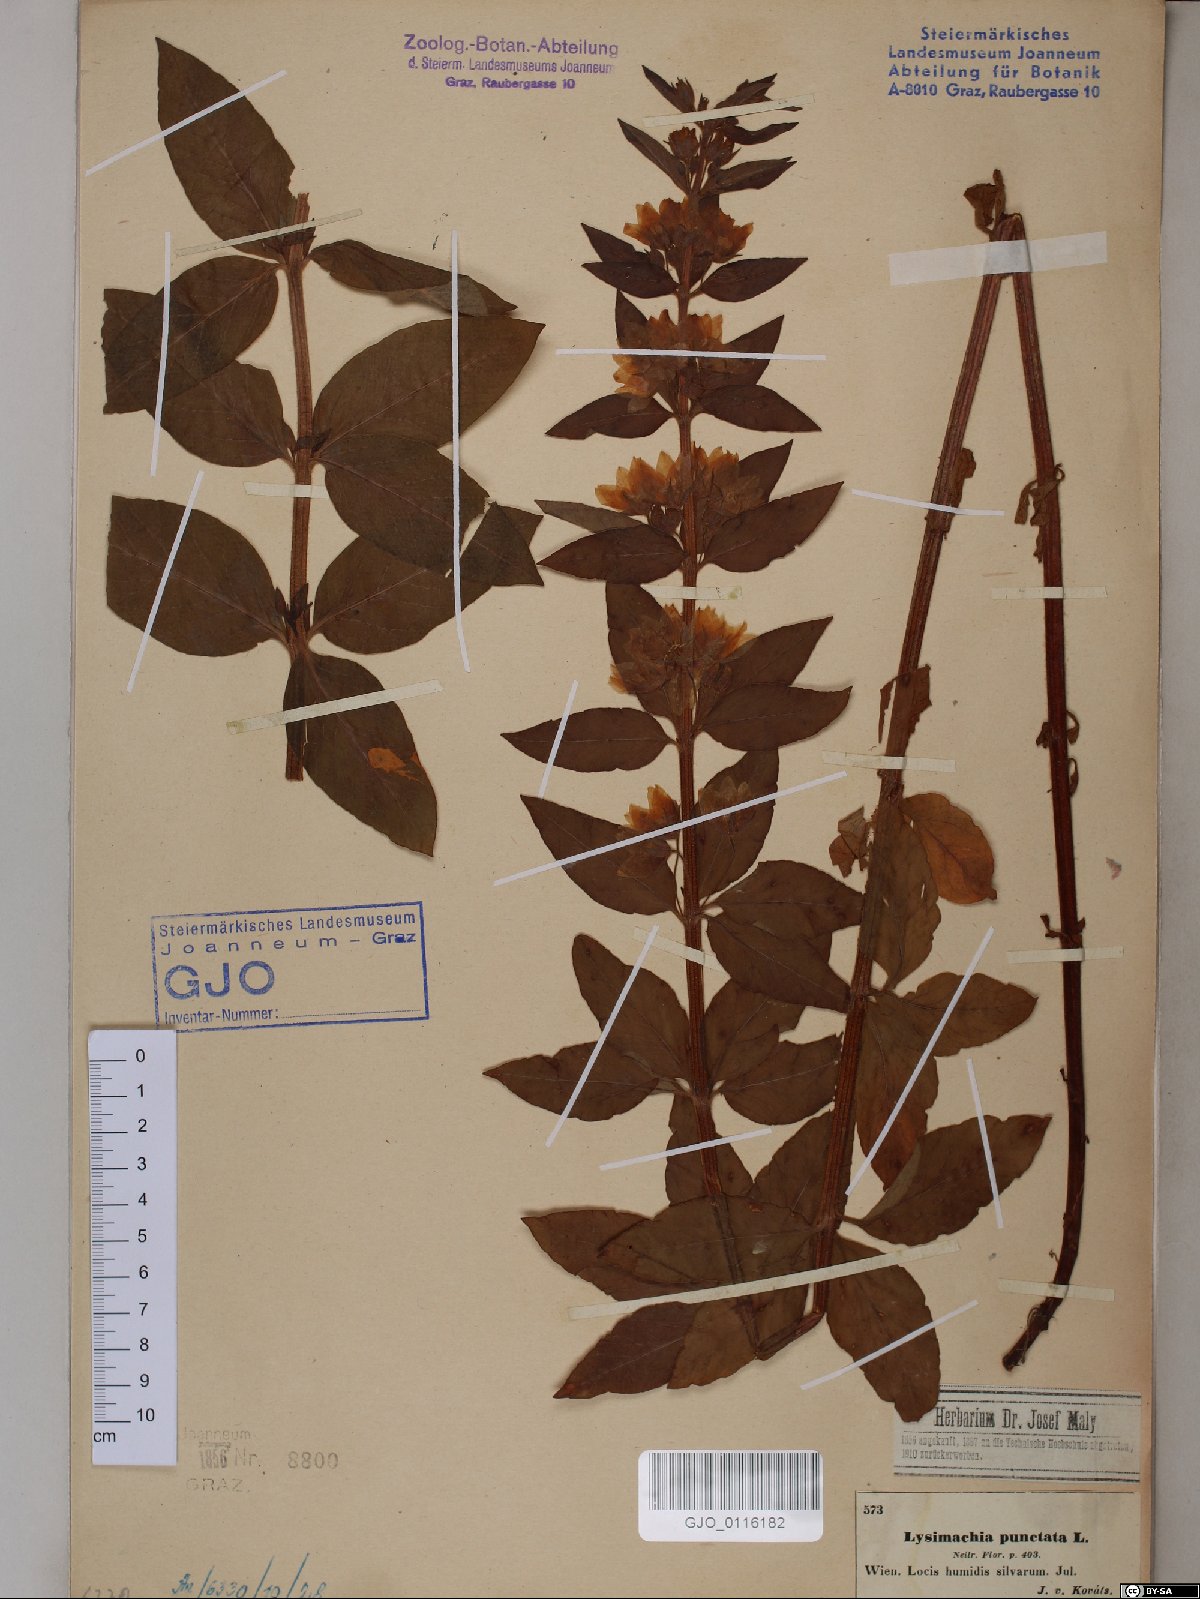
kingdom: Plantae
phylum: Tracheophyta
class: Magnoliopsida
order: Ericales
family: Primulaceae
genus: Lysimachia
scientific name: Lysimachia punctata
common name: Dotted loosestrife
